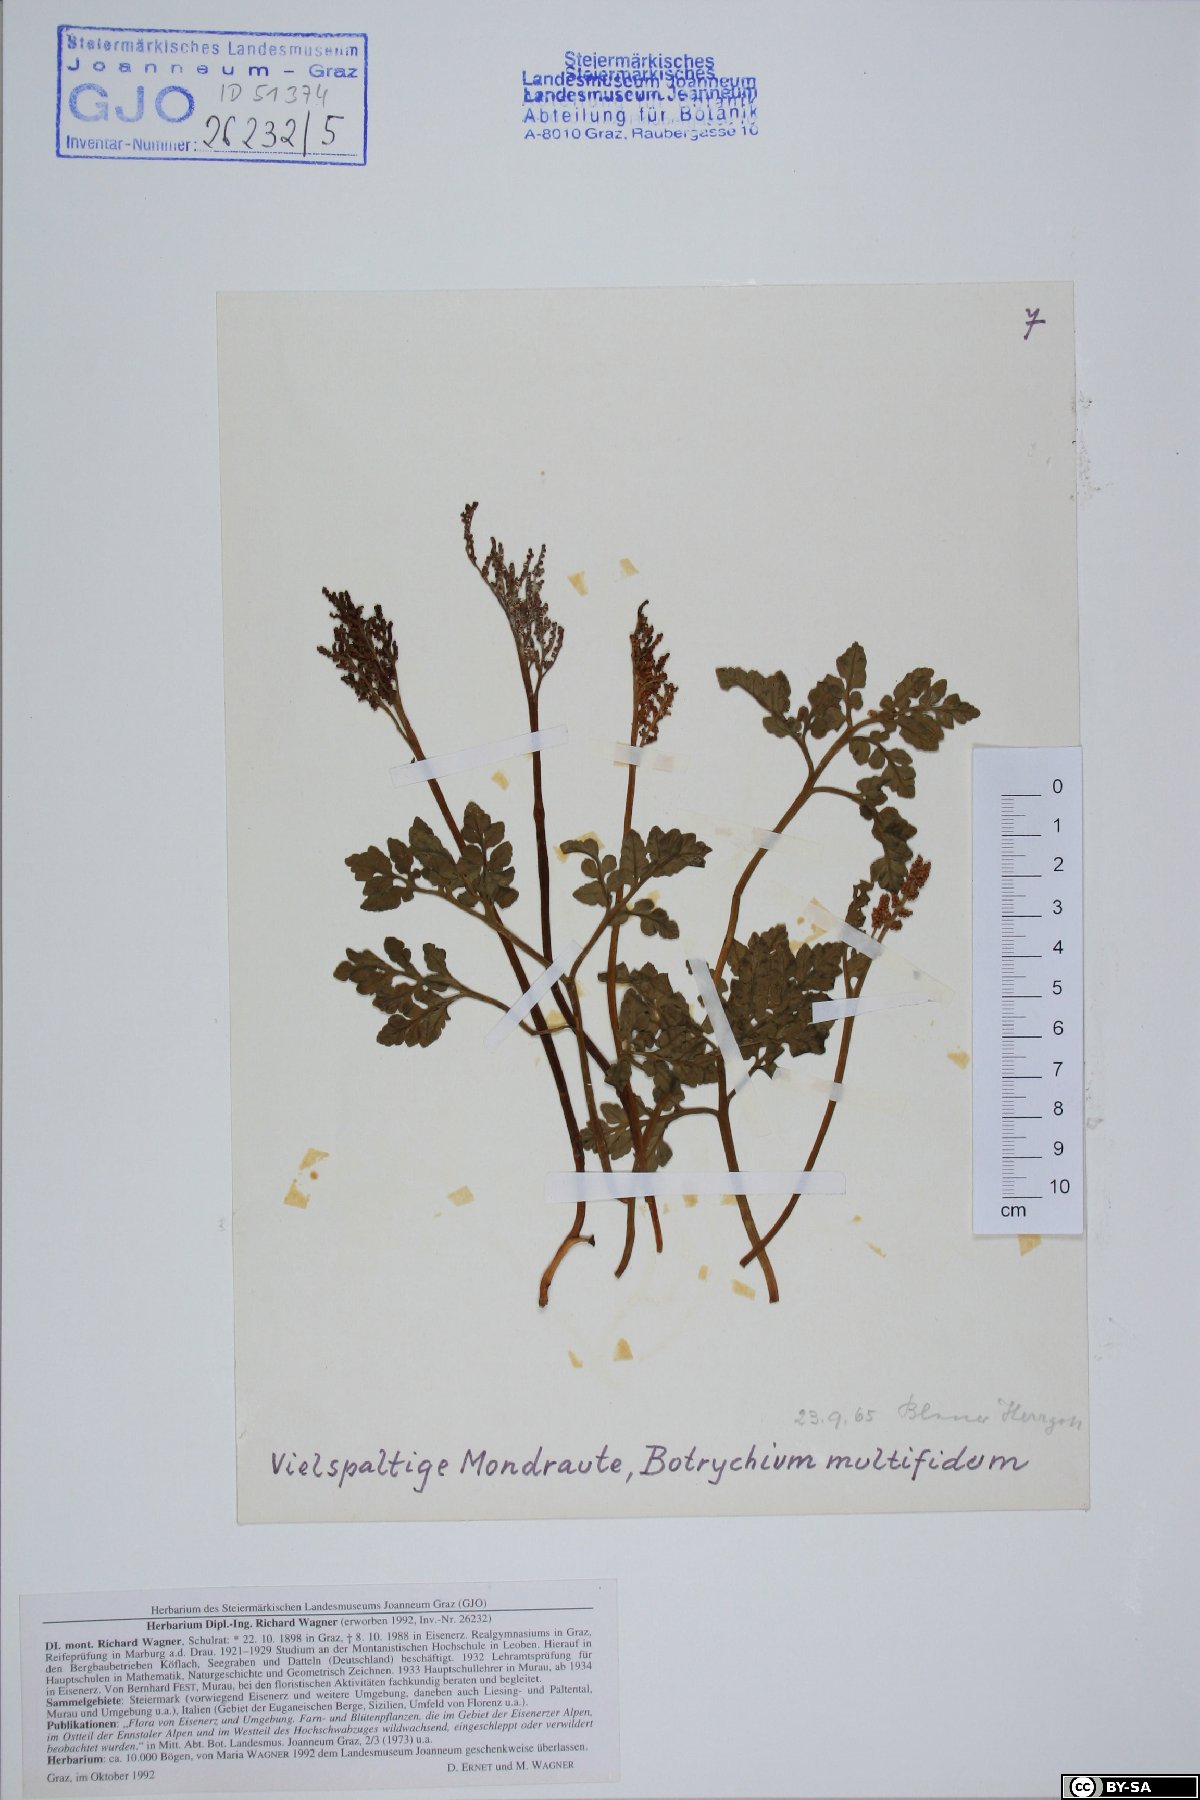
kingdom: Plantae
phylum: Tracheophyta
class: Polypodiopsida
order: Ophioglossales
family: Ophioglossaceae
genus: Sceptridium
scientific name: Sceptridium multifidum
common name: Leathery grape fern
